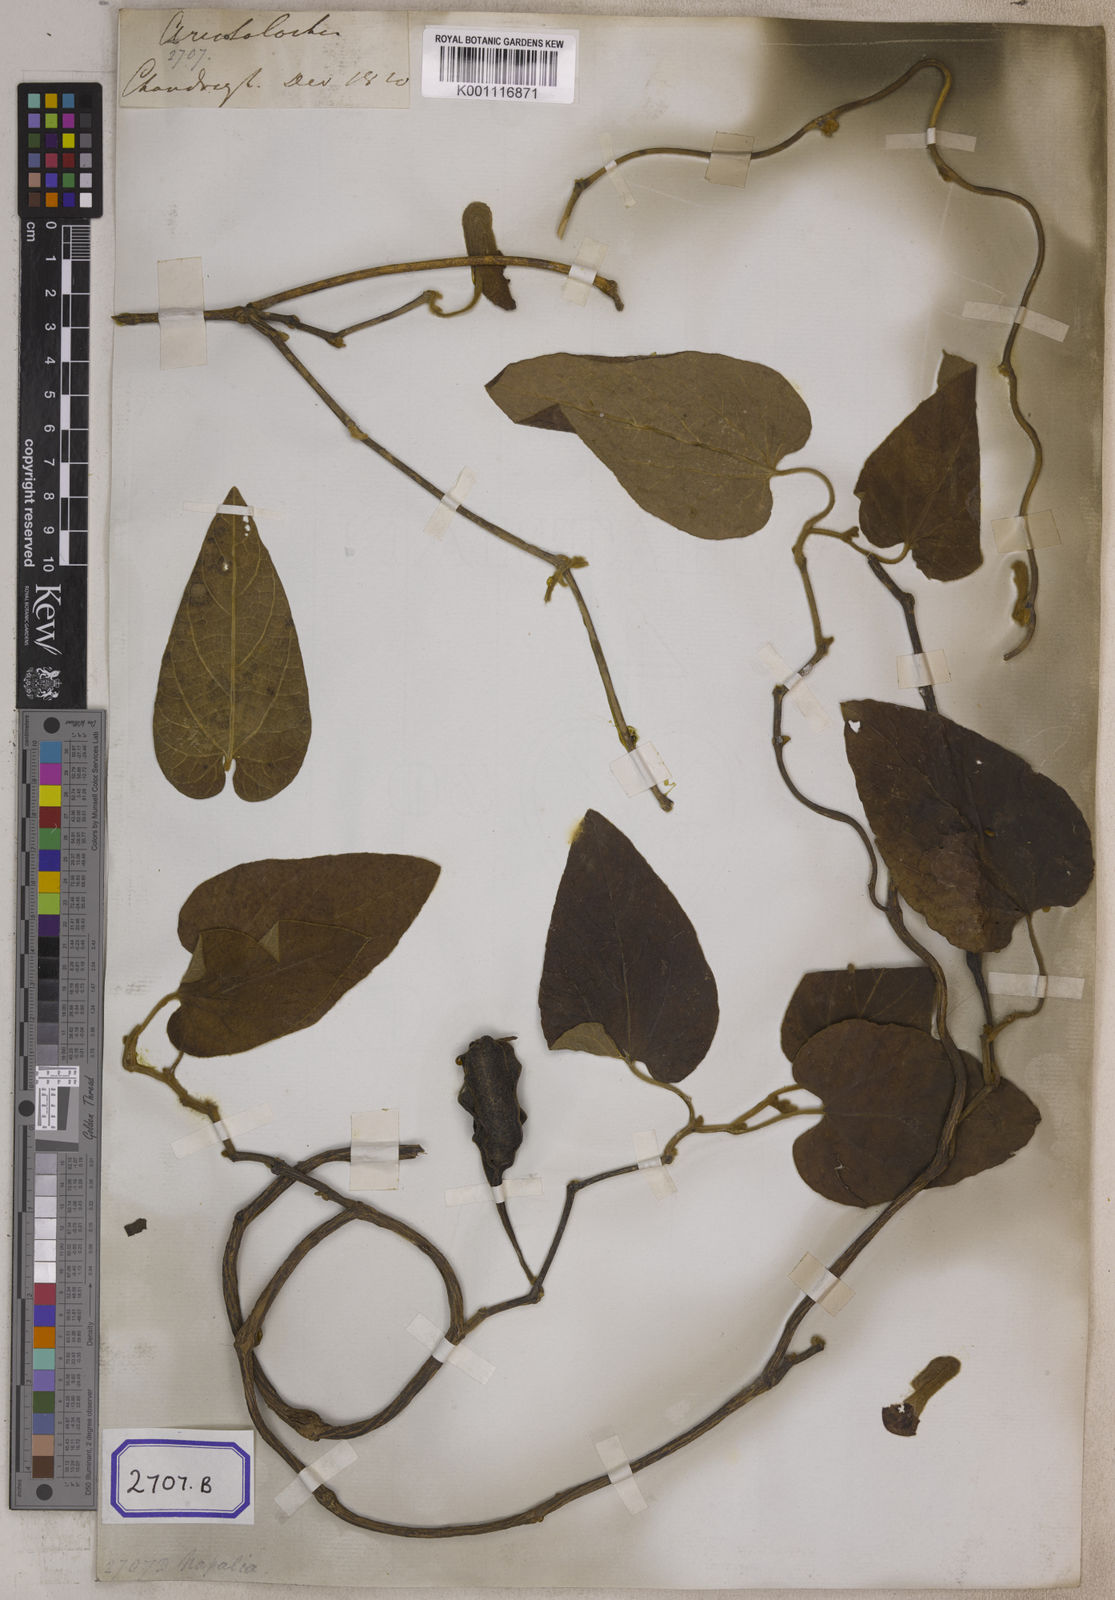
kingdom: Plantae
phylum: Tracheophyta
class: Magnoliopsida
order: Piperales
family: Aristolochiaceae
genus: Isotrema
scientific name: Isotrema saccatum
